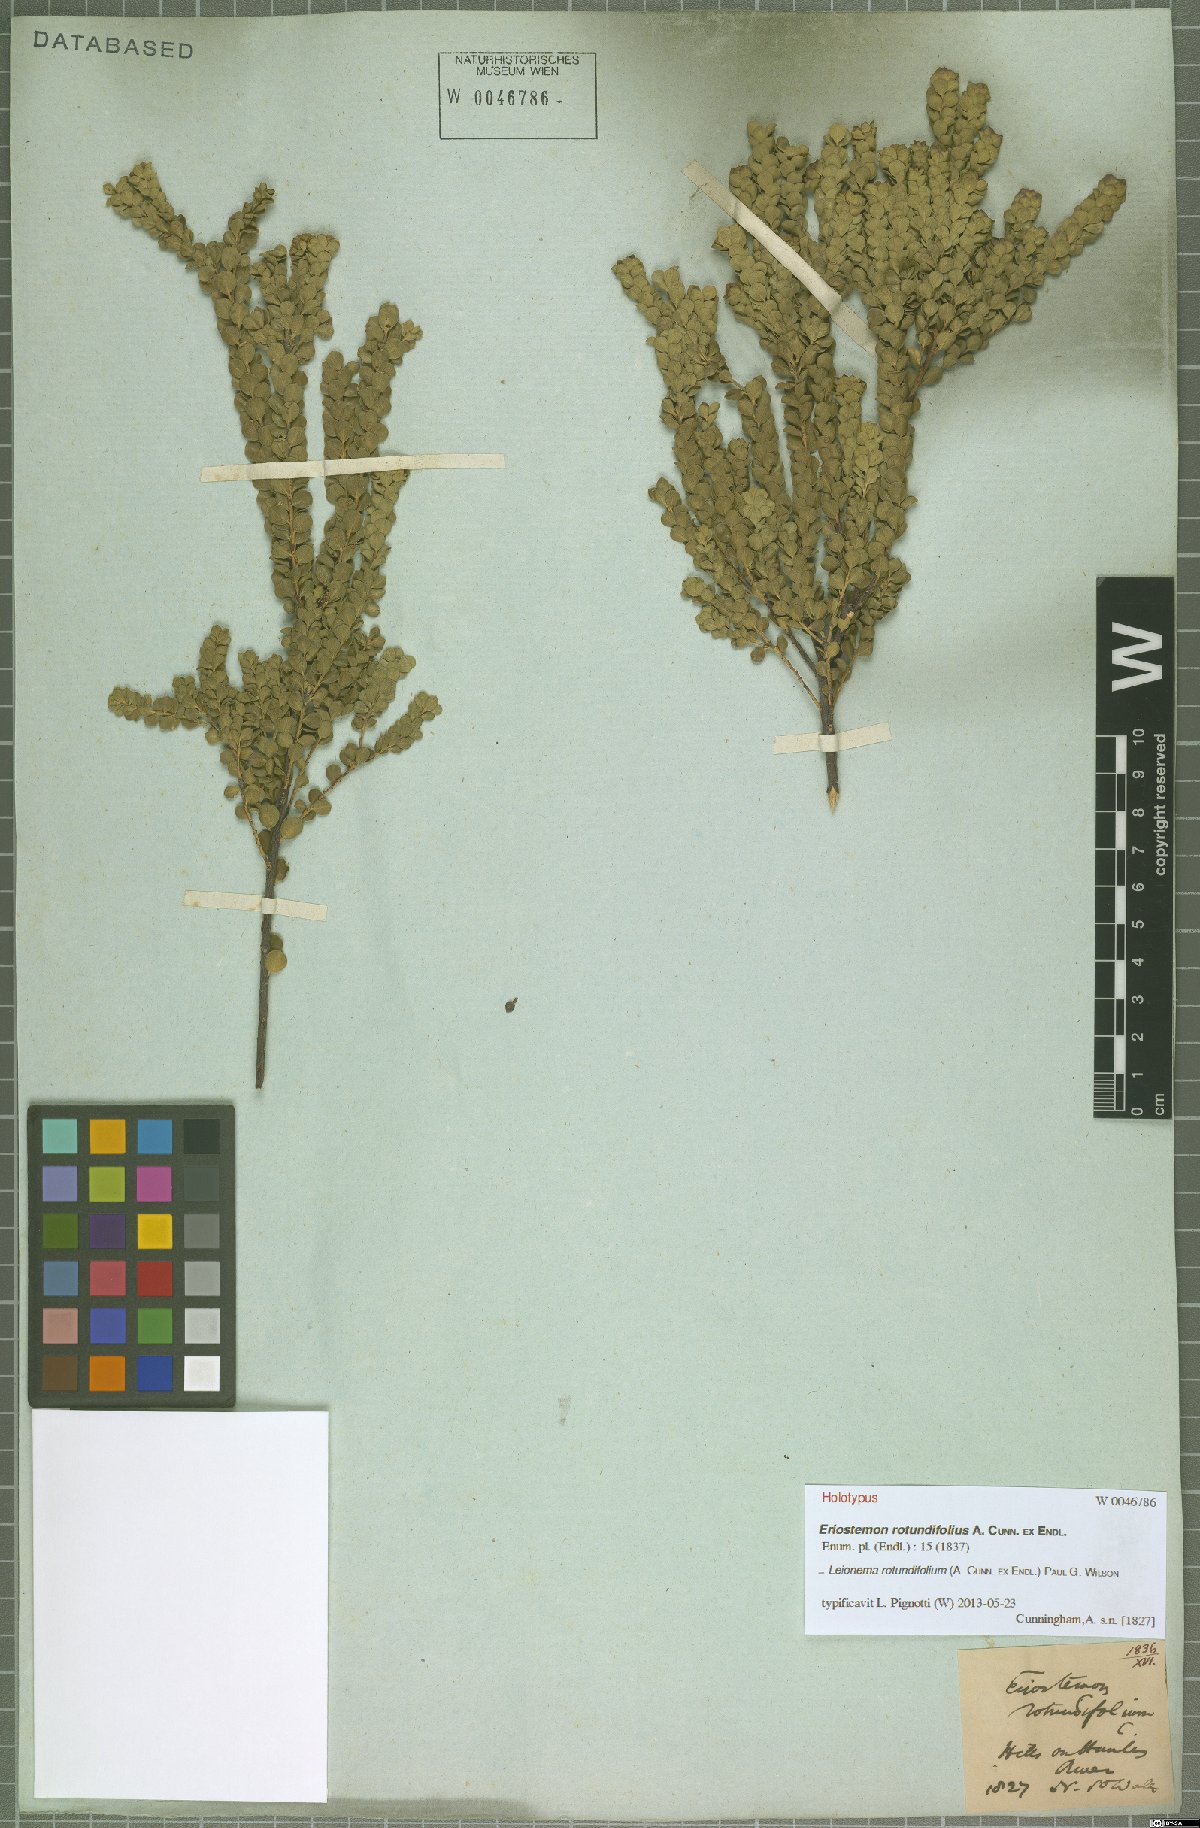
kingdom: Plantae
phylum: Tracheophyta
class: Magnoliopsida
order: Sapindales
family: Rutaceae
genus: Leionema
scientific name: Leionema rotundifolium
